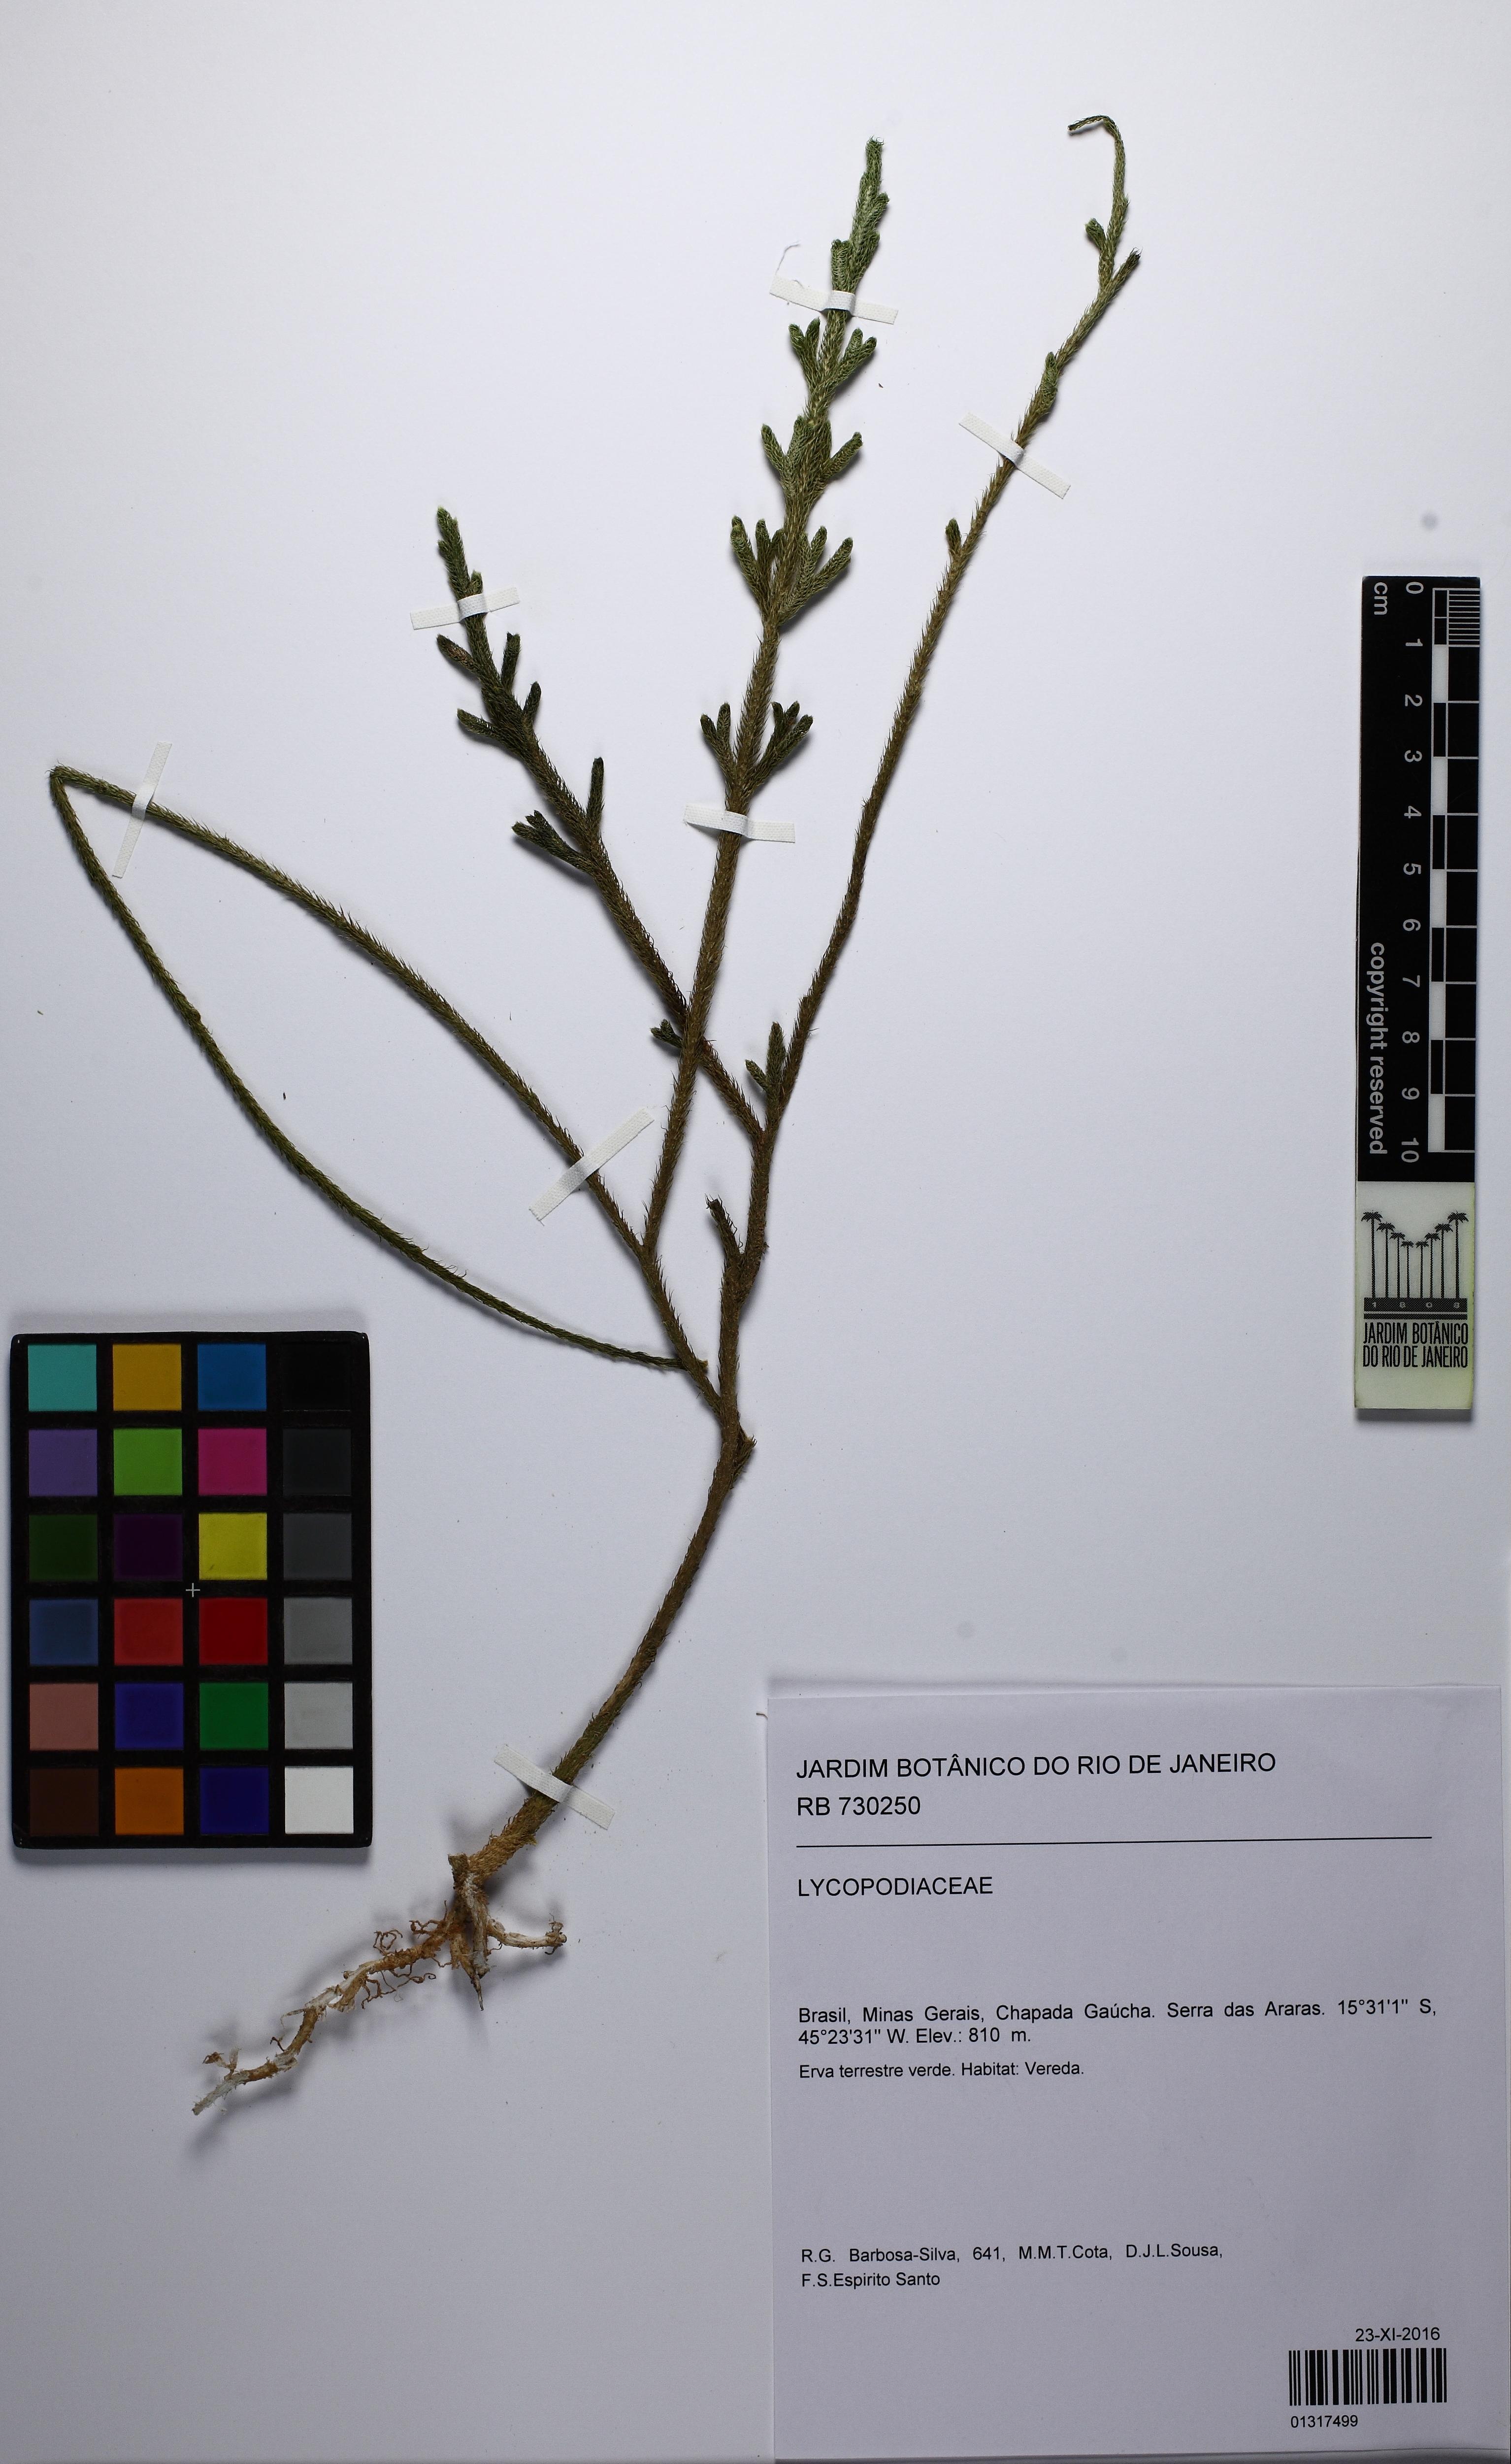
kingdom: Plantae
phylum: Tracheophyta
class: Lycopodiopsida
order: Lycopodiales
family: Lycopodiaceae
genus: Palhinhaea
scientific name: Palhinhaea camporum
